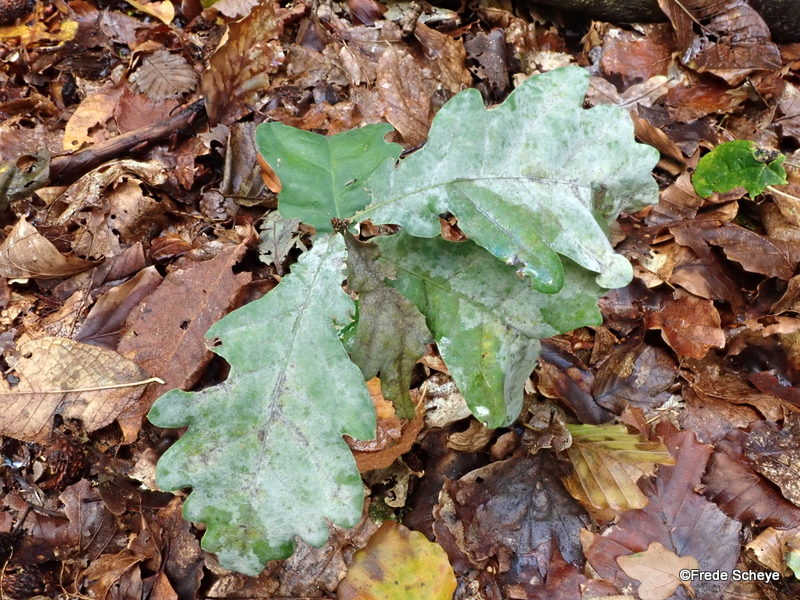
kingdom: Fungi
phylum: Ascomycota
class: Leotiomycetes
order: Helotiales
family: Erysiphaceae
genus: Erysiphe
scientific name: Erysiphe alphitoides
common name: ege-meldug
